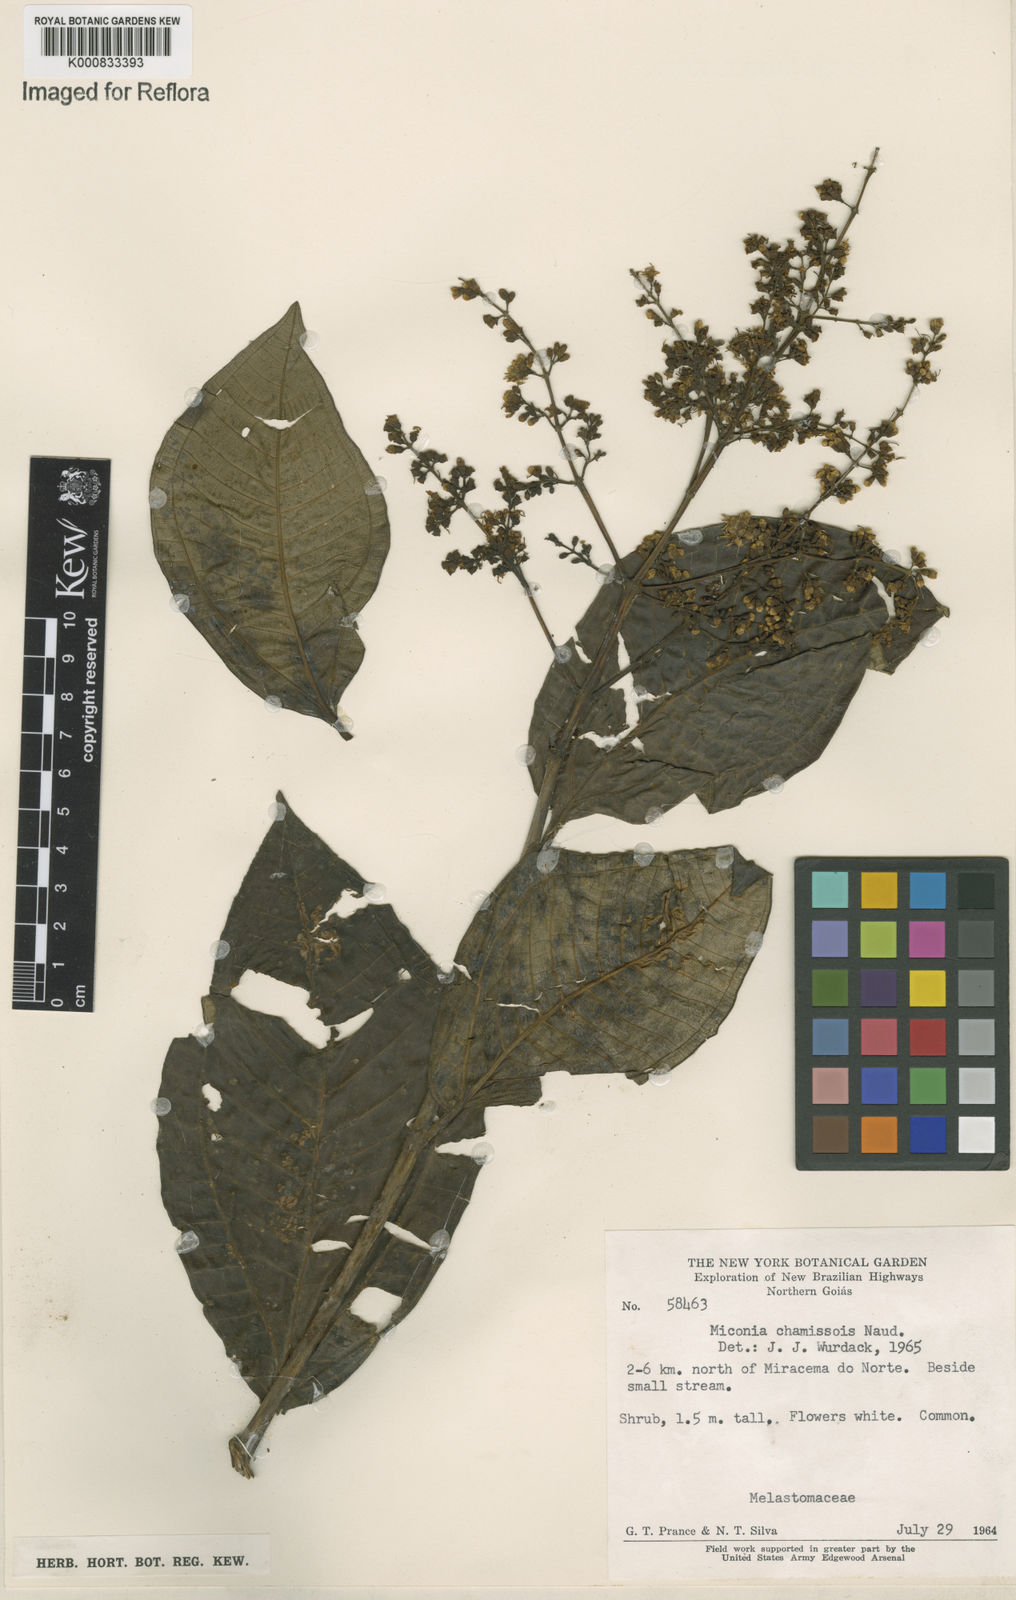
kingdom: Plantae
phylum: Tracheophyta
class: Magnoliopsida
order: Myrtales
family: Melastomataceae
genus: Miconia
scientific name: Miconia chamissois
